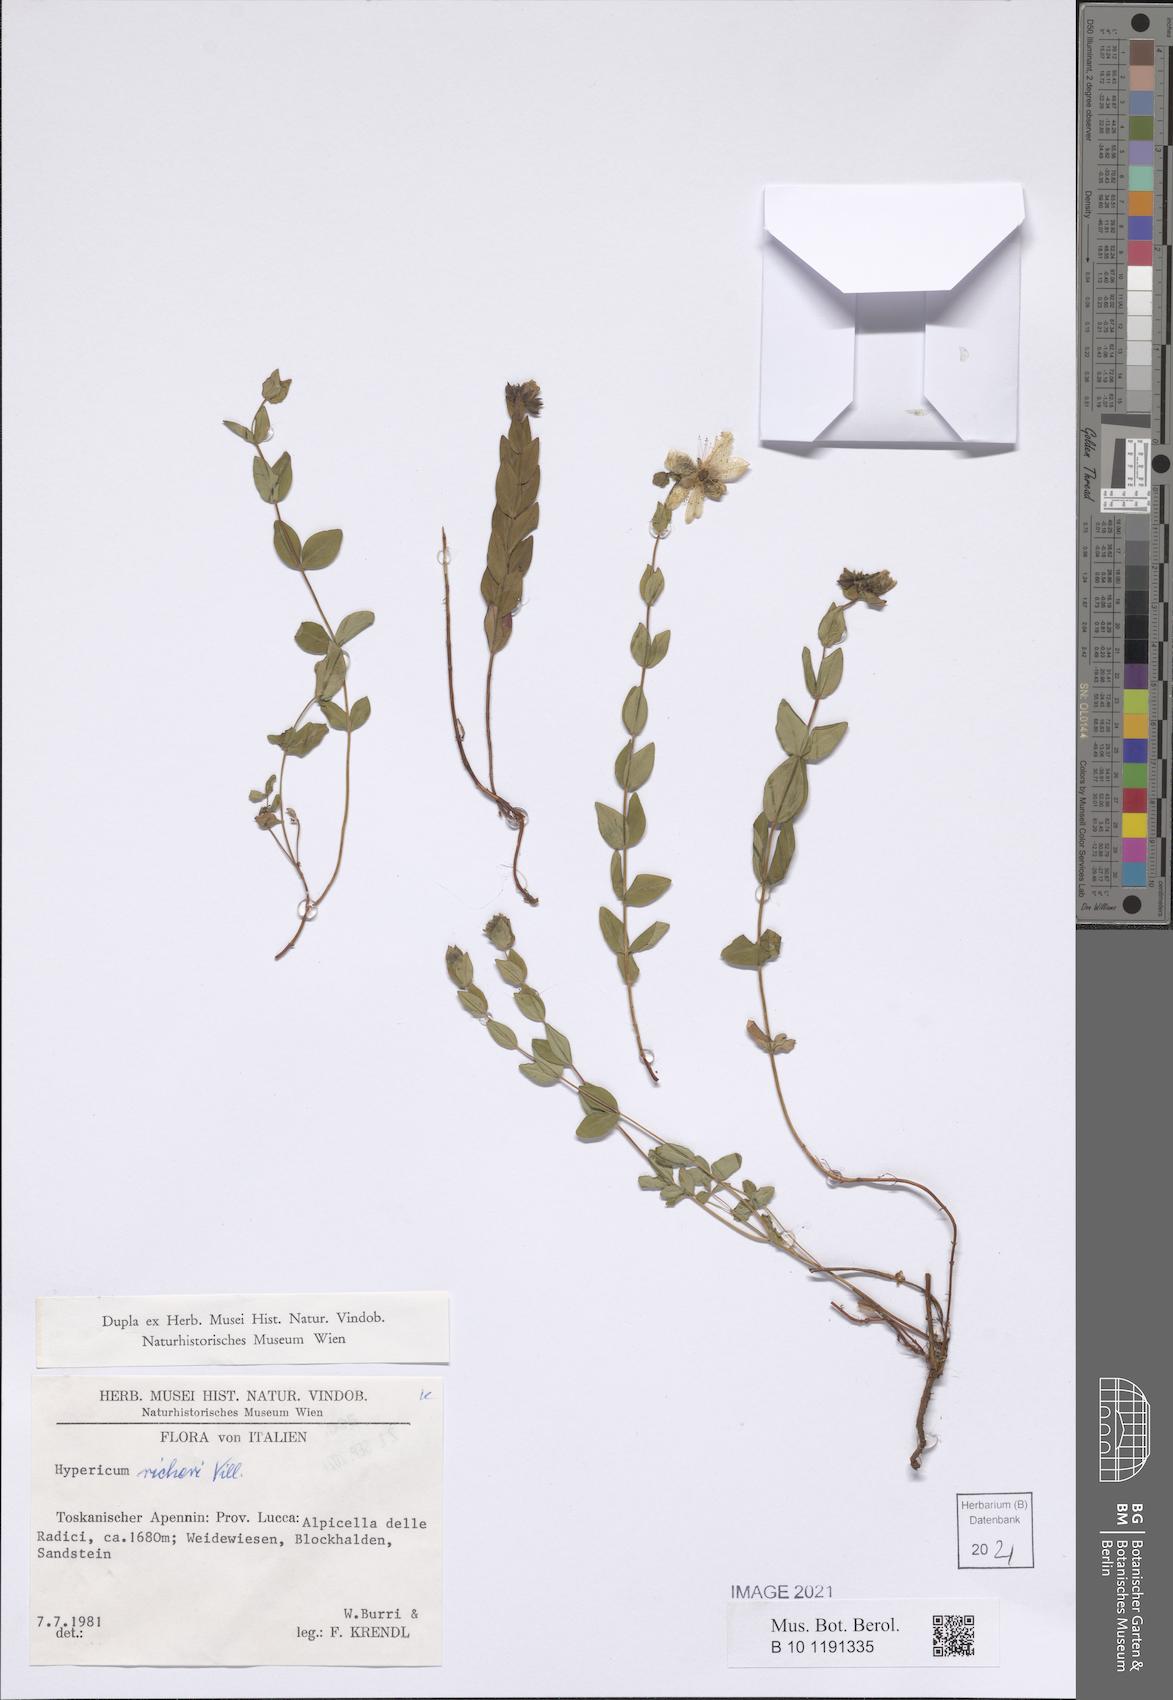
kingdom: Plantae
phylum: Tracheophyta
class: Magnoliopsida
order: Malpighiales
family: Hypericaceae
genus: Hypericum
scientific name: Hypericum richeri
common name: Alpine st john's-wort
